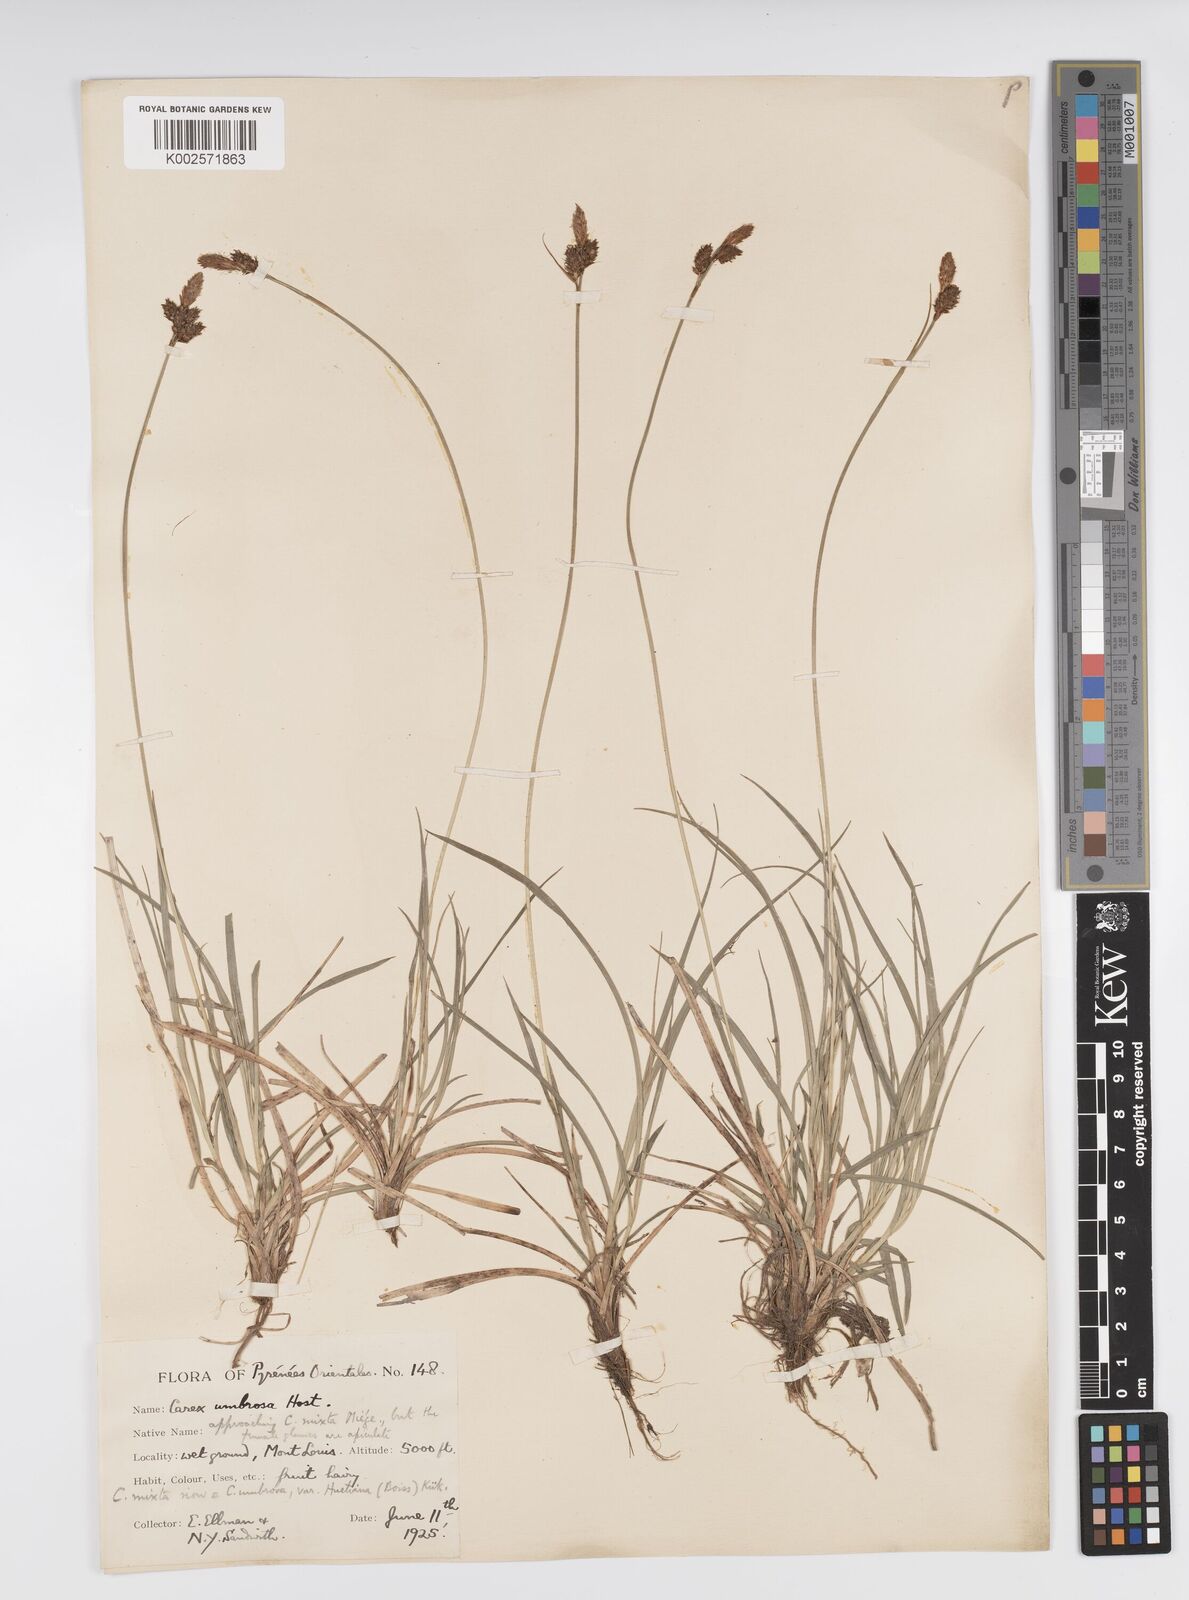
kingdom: Plantae
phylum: Tracheophyta
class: Liliopsida
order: Poales
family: Cyperaceae
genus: Carex
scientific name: Carex umbrosa
